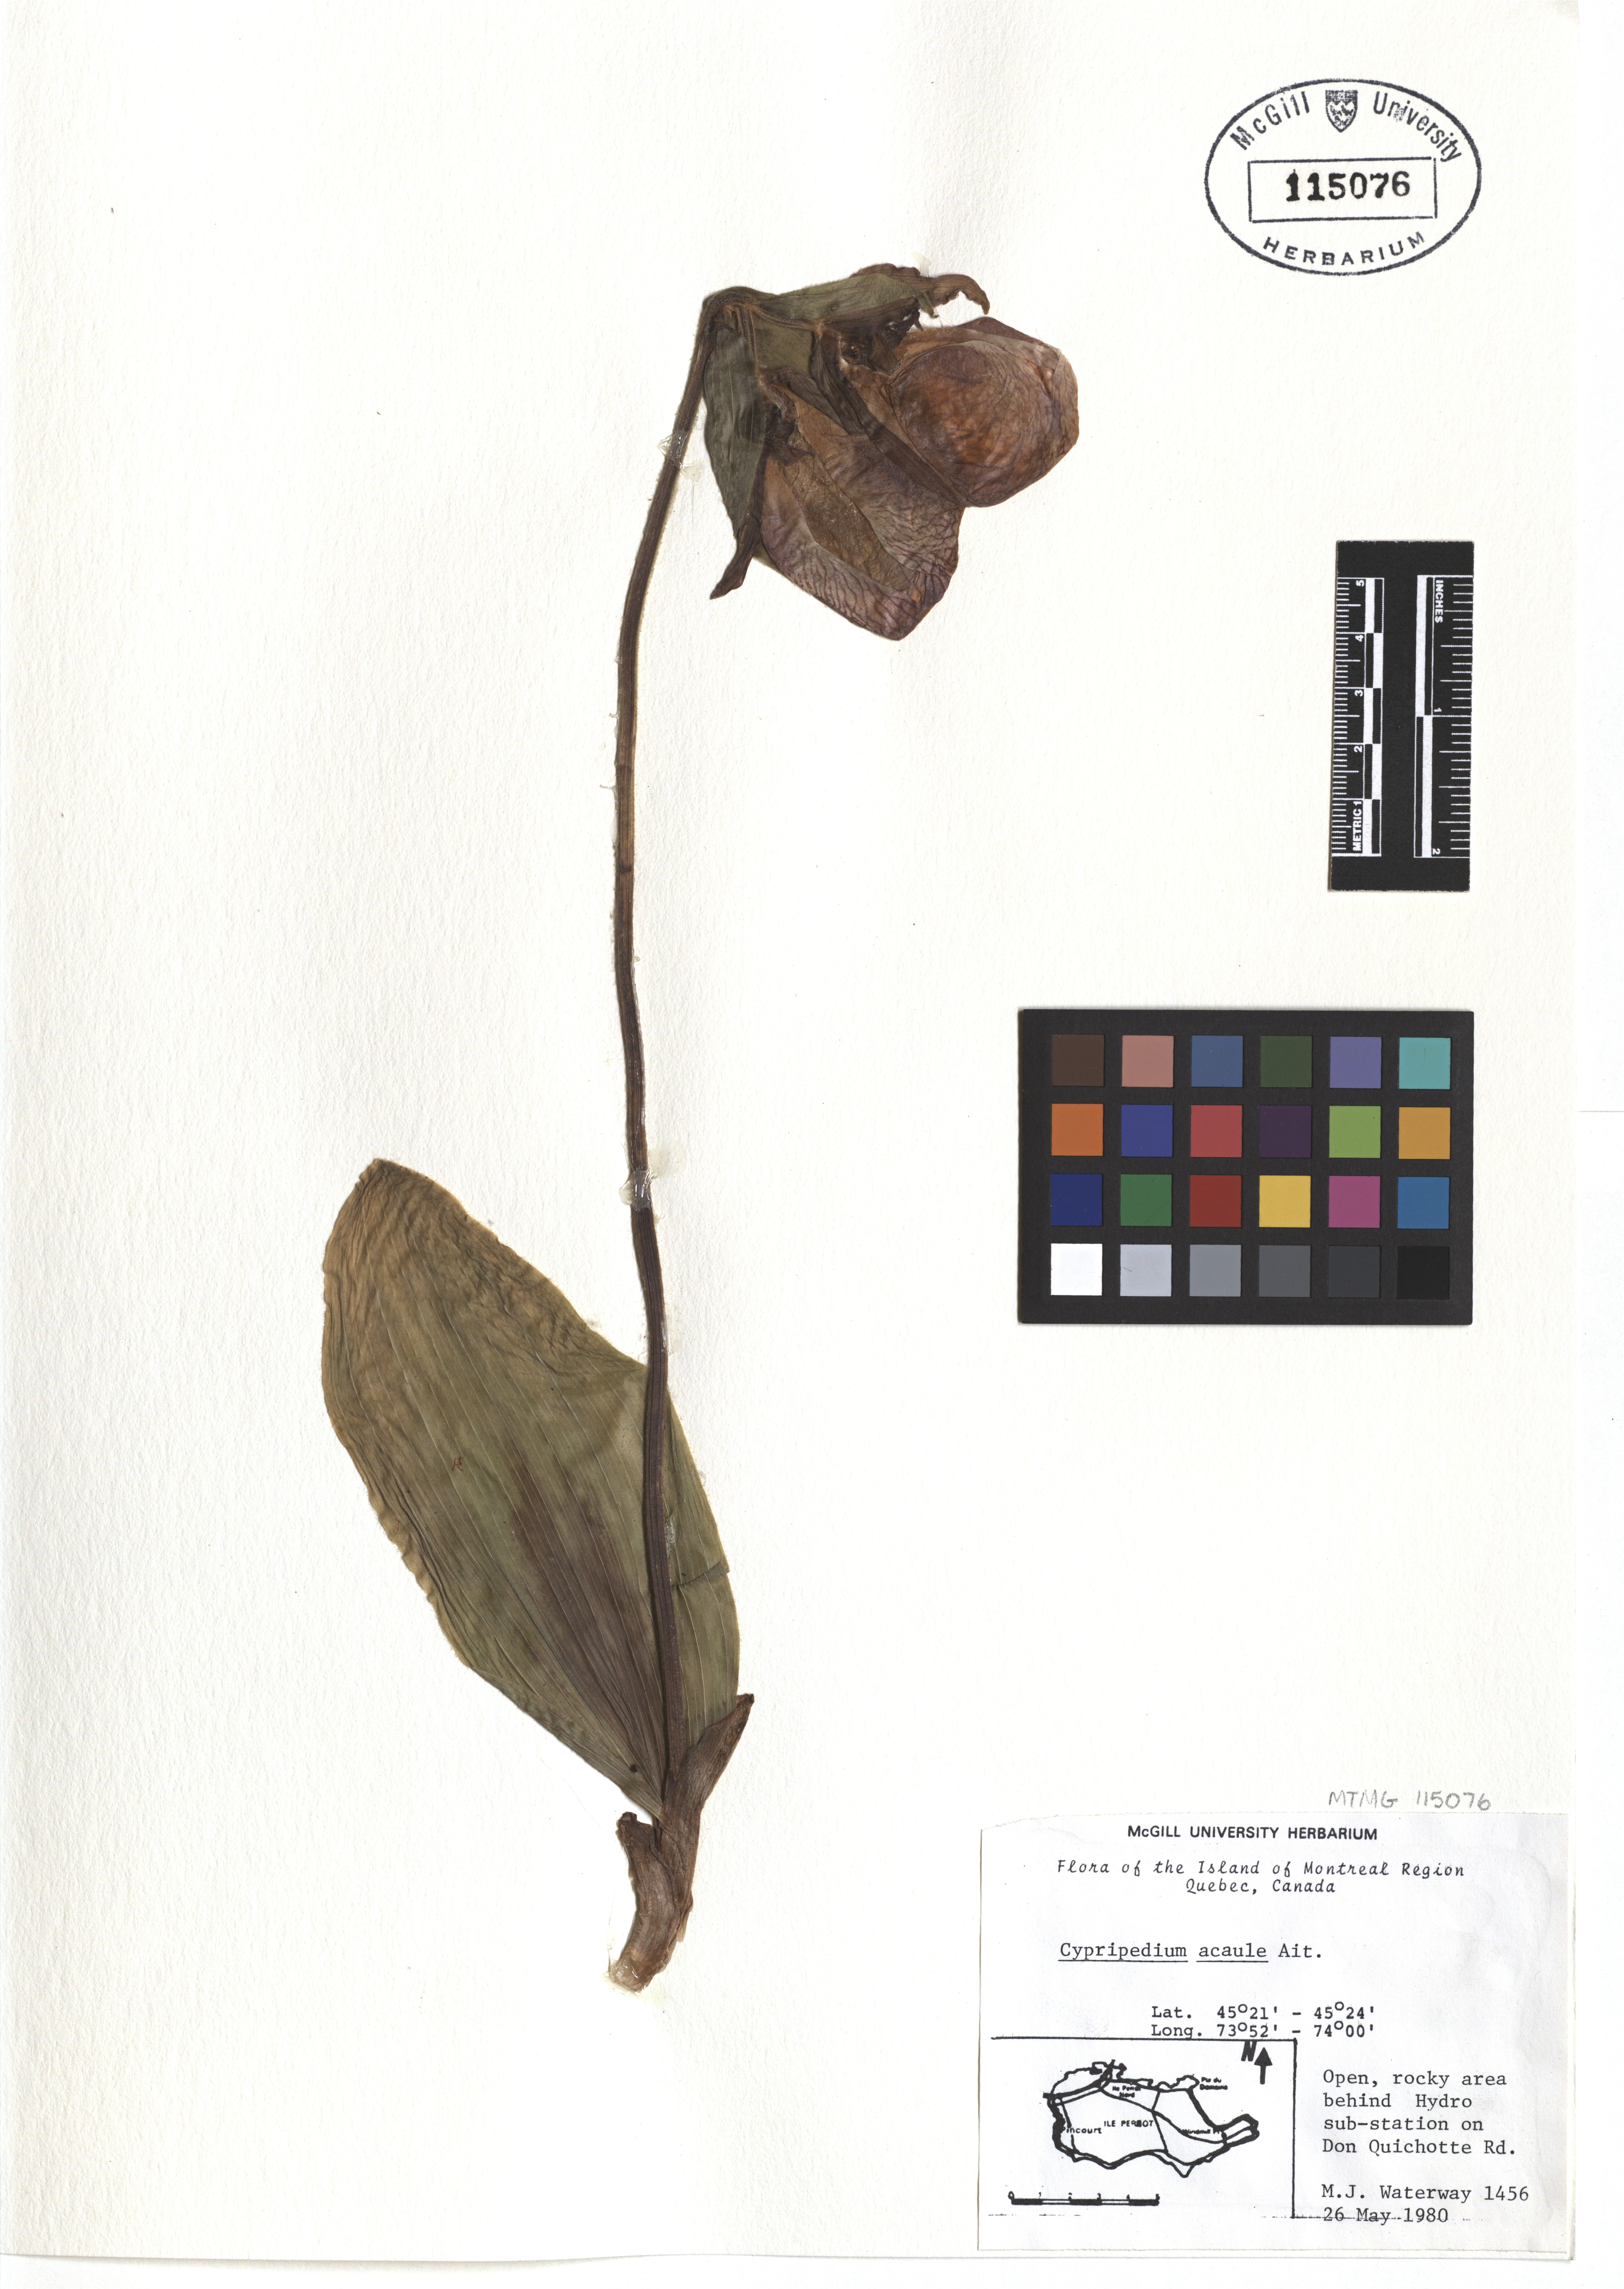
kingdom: Plantae
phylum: Tracheophyta
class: Liliopsida
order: Asparagales
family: Orchidaceae
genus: Cypripedium
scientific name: Cypripedium acaule
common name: Pink lady's-slipper
